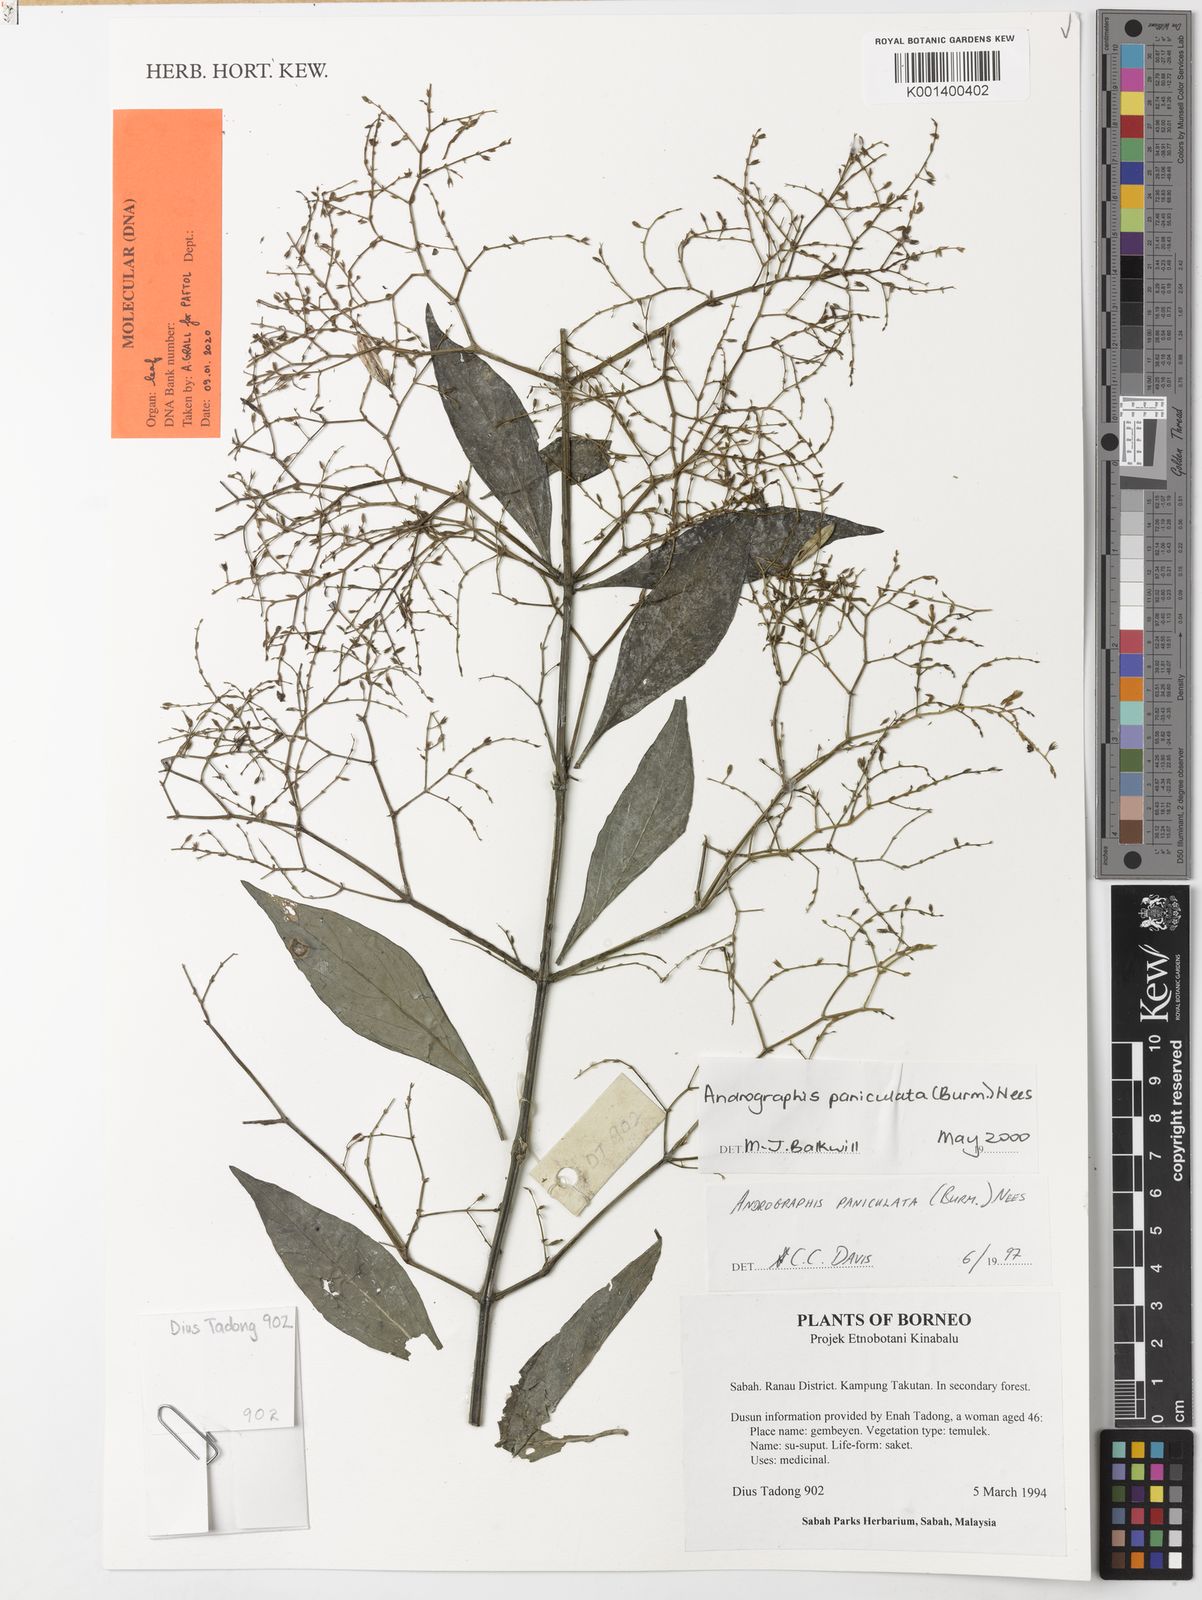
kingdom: Plantae
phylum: Tracheophyta
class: Magnoliopsida
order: Lamiales
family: Acanthaceae
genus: Andrographis
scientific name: Andrographis paniculata
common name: Green chireta
